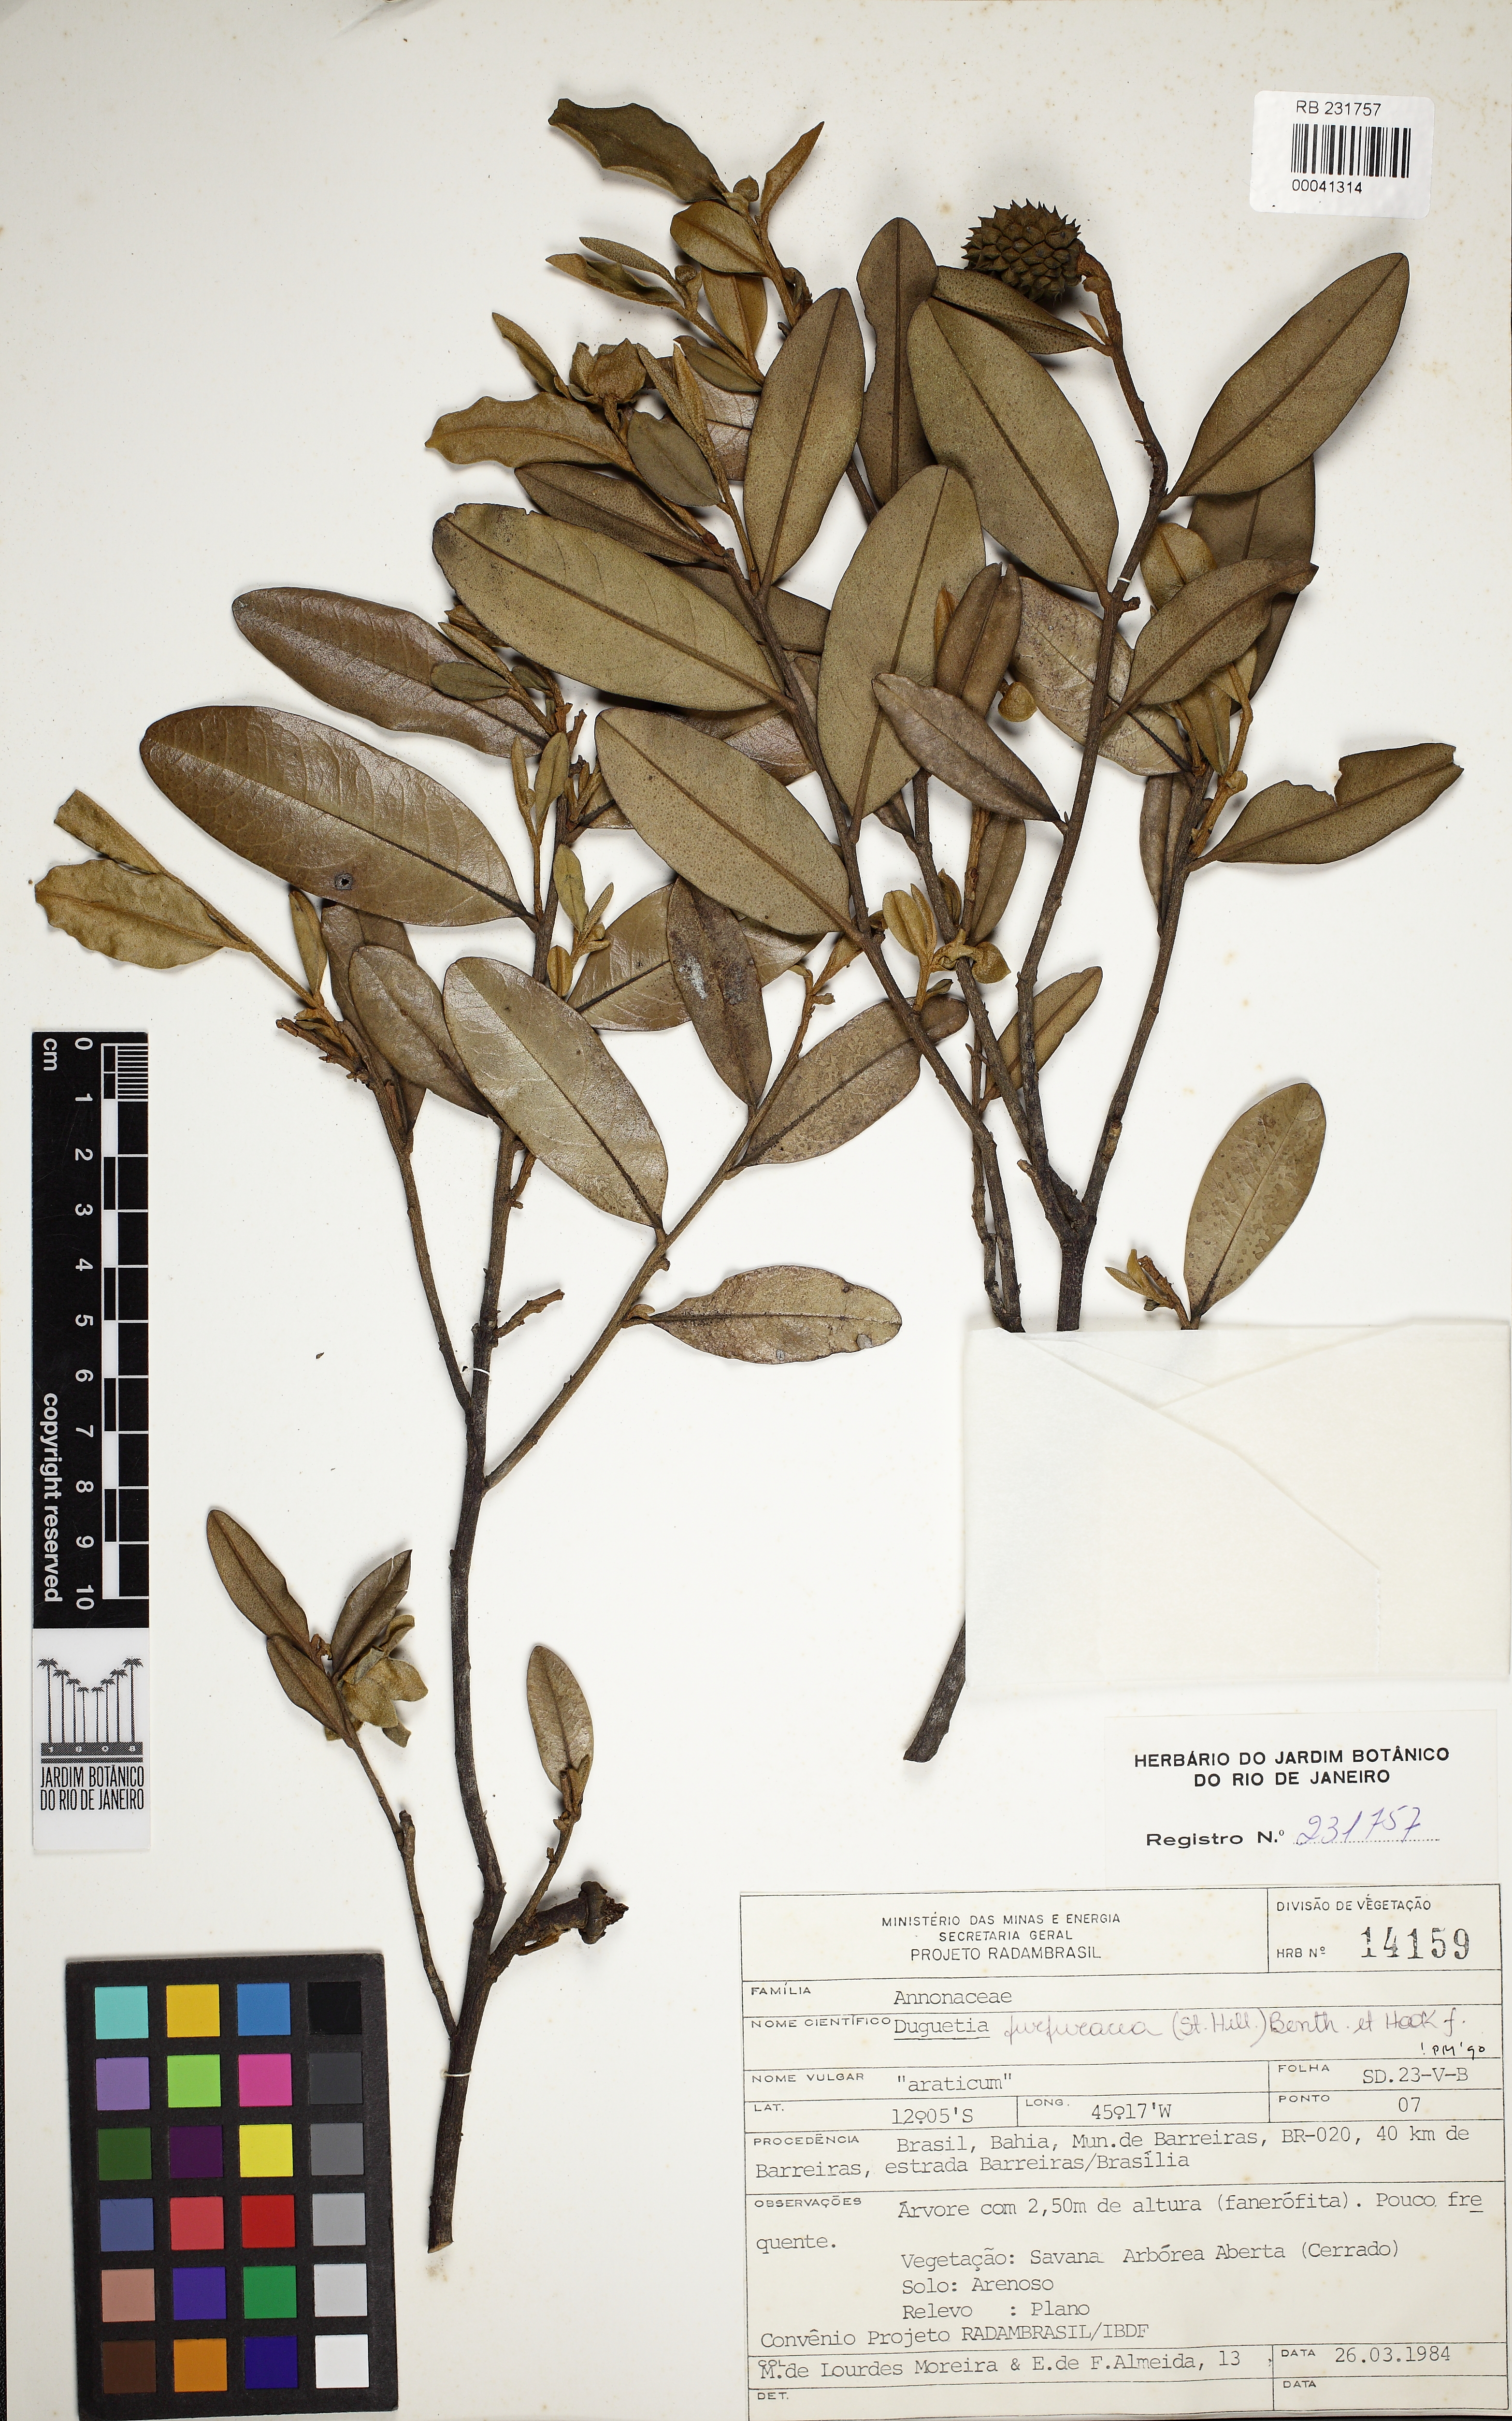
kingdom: Plantae
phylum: Tracheophyta
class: Magnoliopsida
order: Magnoliales
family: Annonaceae
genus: Duguetia
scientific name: Duguetia furfuracea
